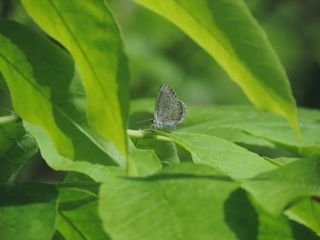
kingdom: Animalia
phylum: Arthropoda
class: Insecta
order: Lepidoptera
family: Lycaenidae
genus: Celastrina
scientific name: Celastrina
